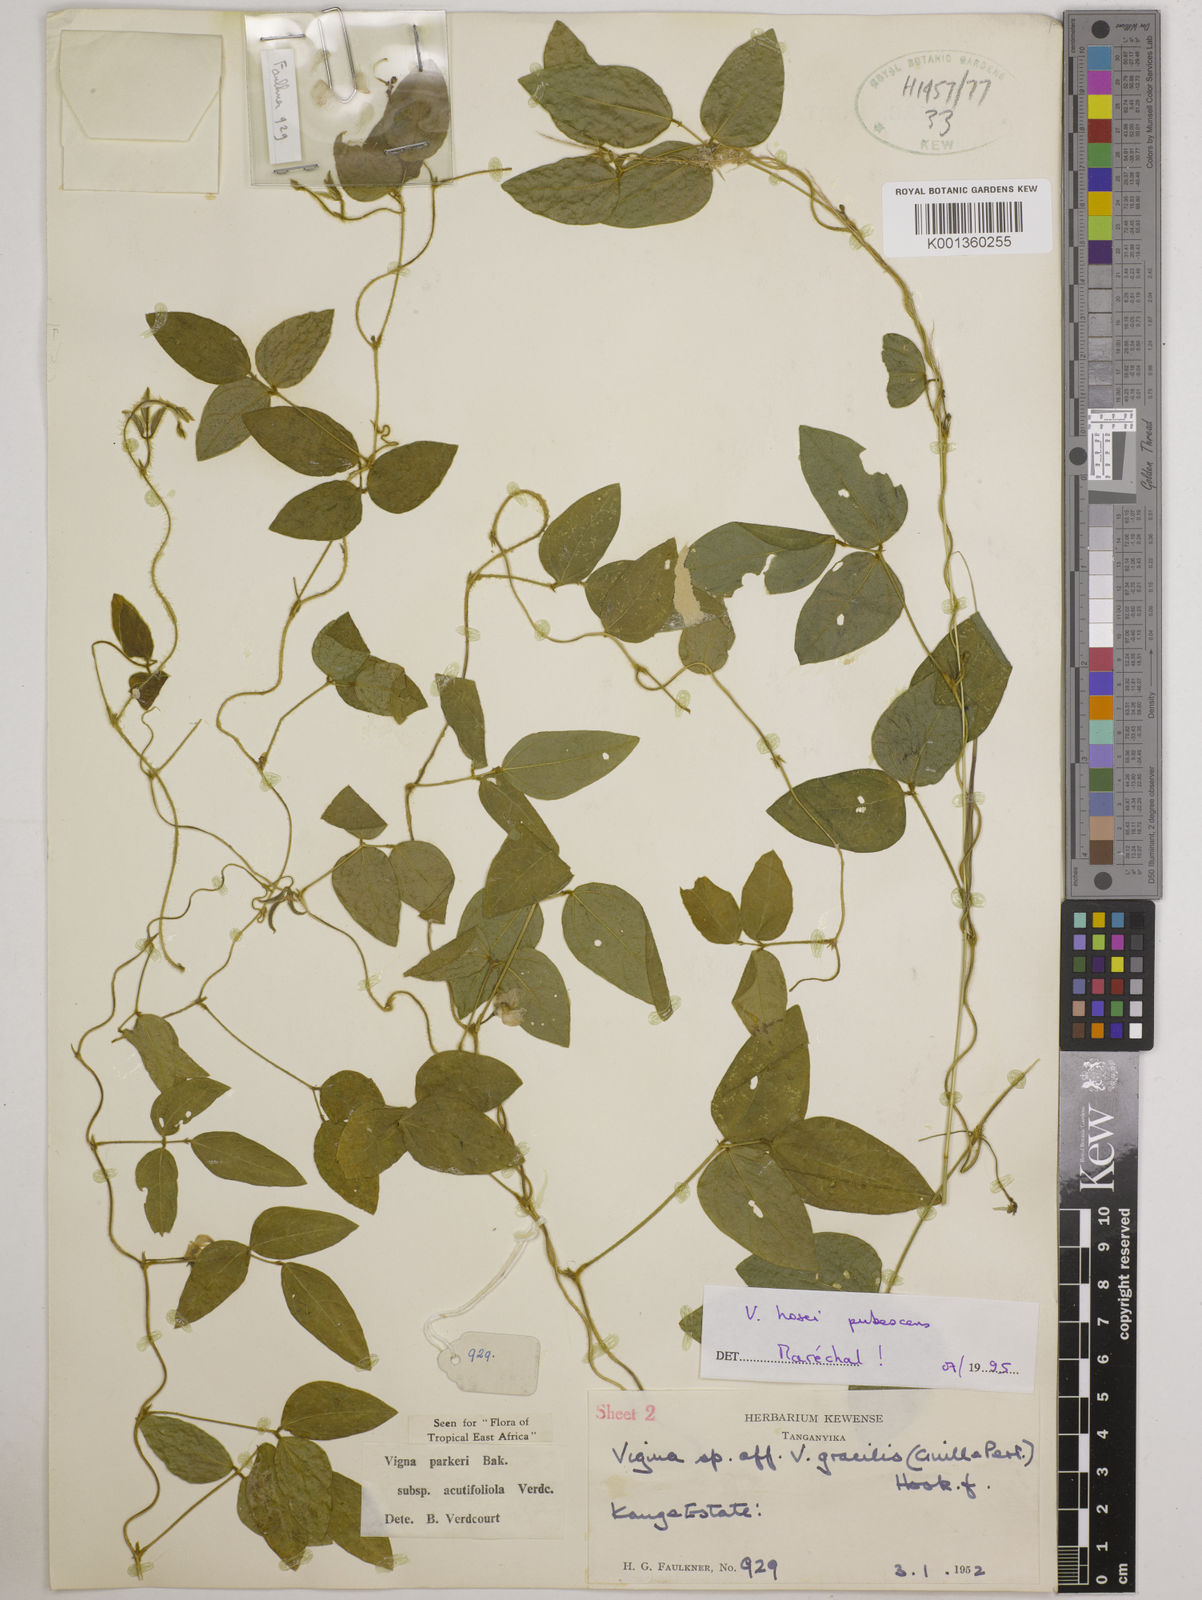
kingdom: Plantae
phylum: Tracheophyta
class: Magnoliopsida
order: Fabales
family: Fabaceae
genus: Vigna
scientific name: Vigna
